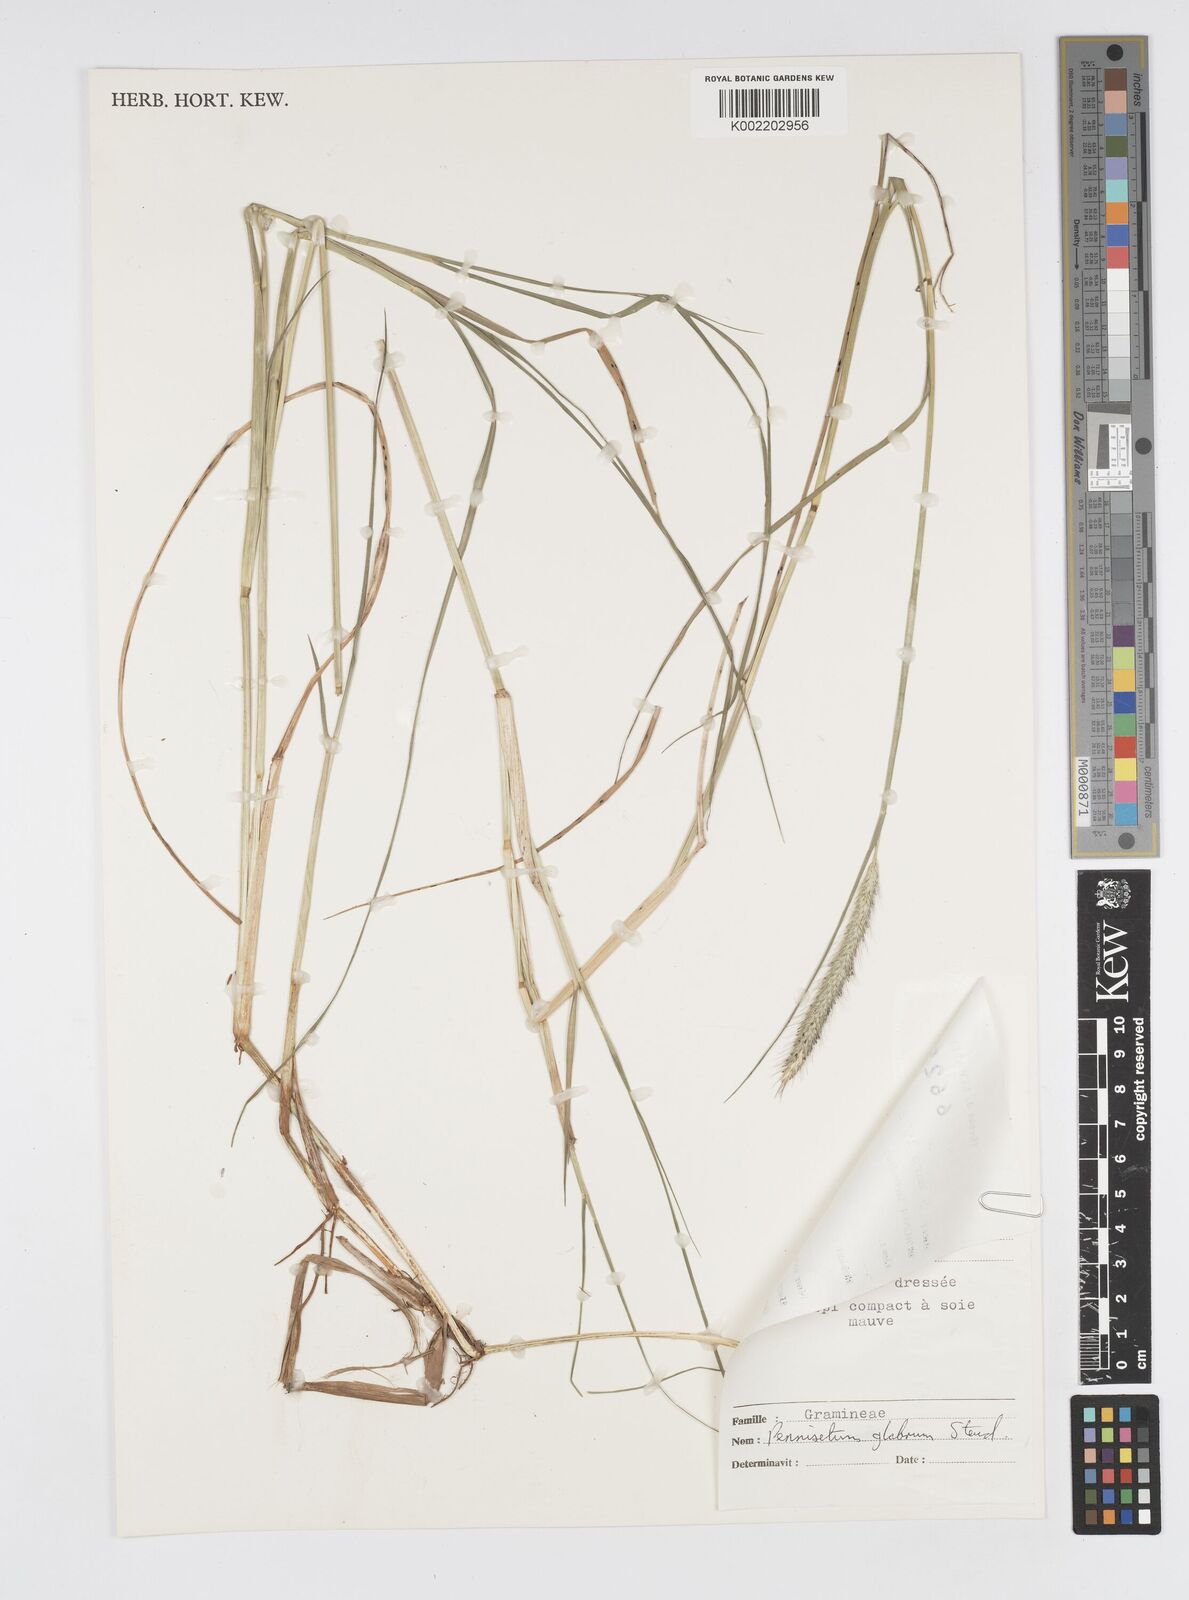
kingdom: Plantae
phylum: Tracheophyta
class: Liliopsida
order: Poales
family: Poaceae
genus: Cenchrus
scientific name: Cenchrus geniculatus
